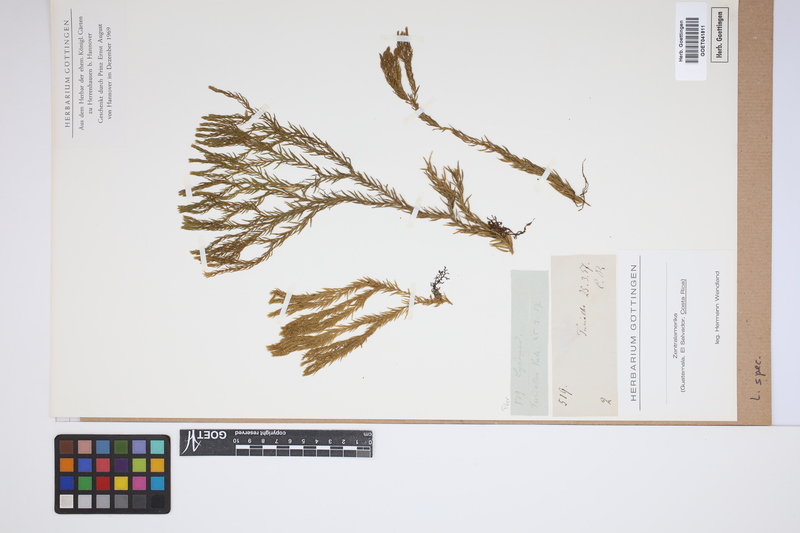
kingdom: Plantae
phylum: Tracheophyta
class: Lycopodiopsida
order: Lycopodiales
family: Lycopodiaceae
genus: Lycopodium
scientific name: Lycopodium
